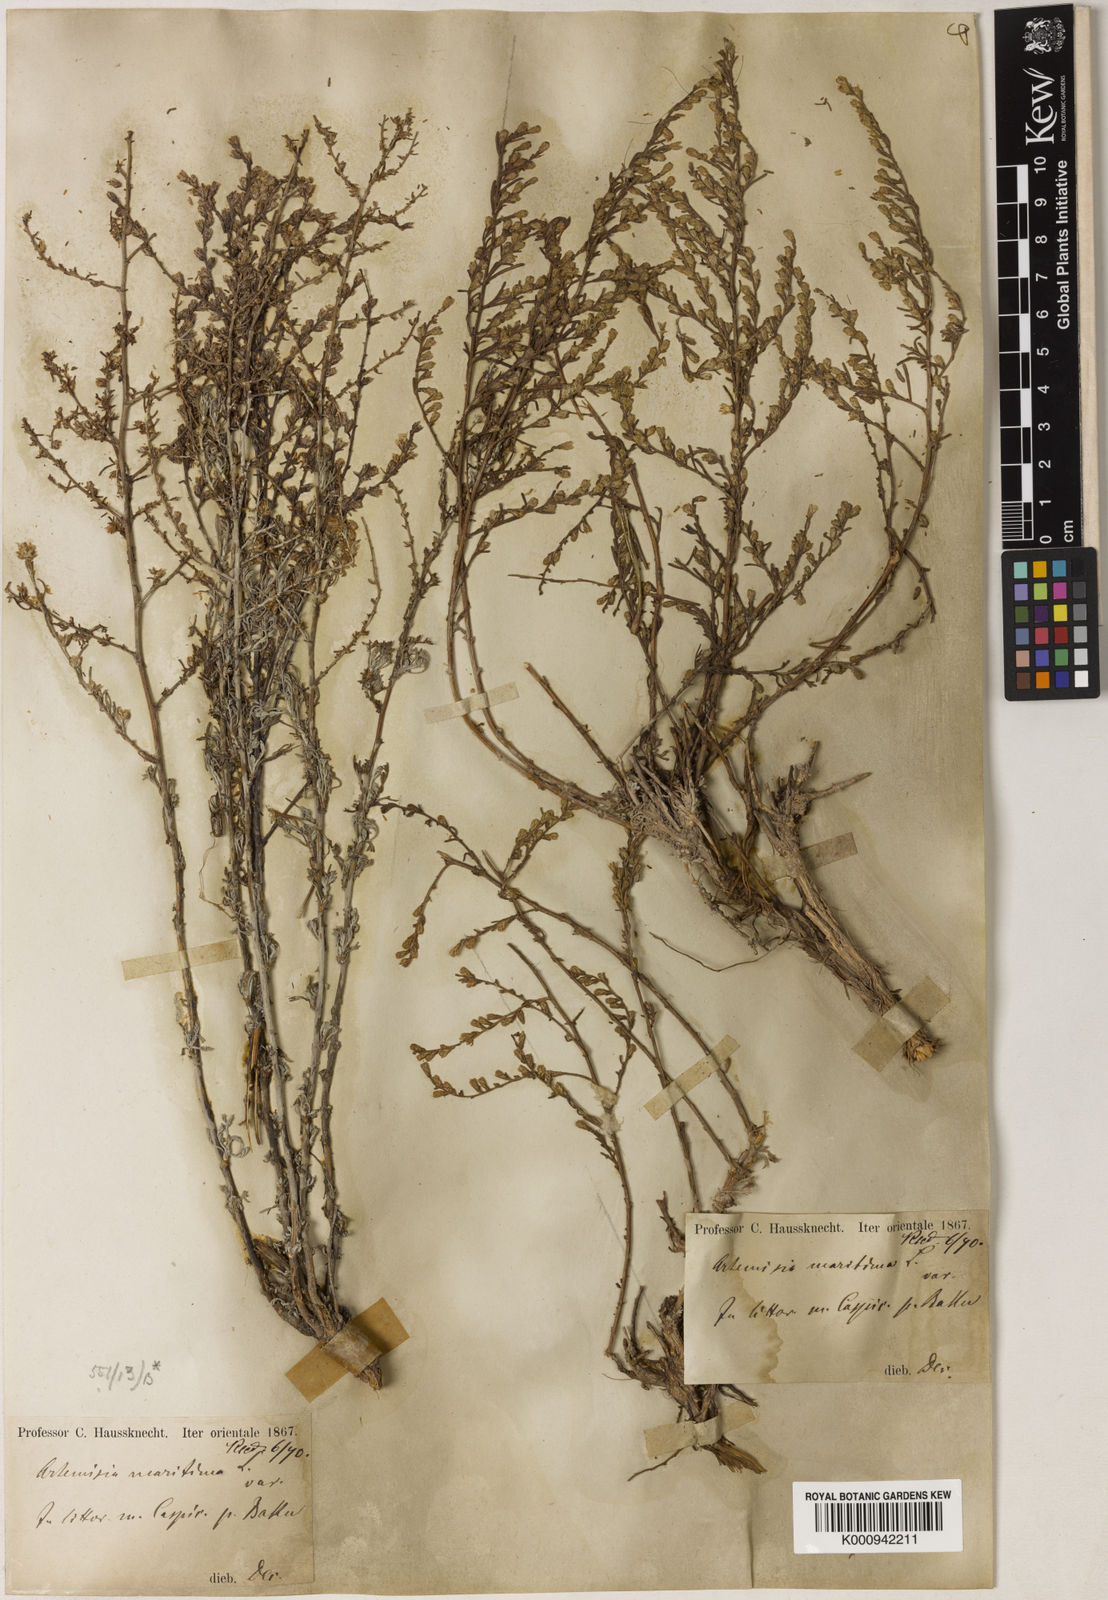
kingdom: Plantae
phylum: Tracheophyta
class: Magnoliopsida
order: Asterales
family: Asteraceae
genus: Artemisia
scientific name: Artemisia fragrans
